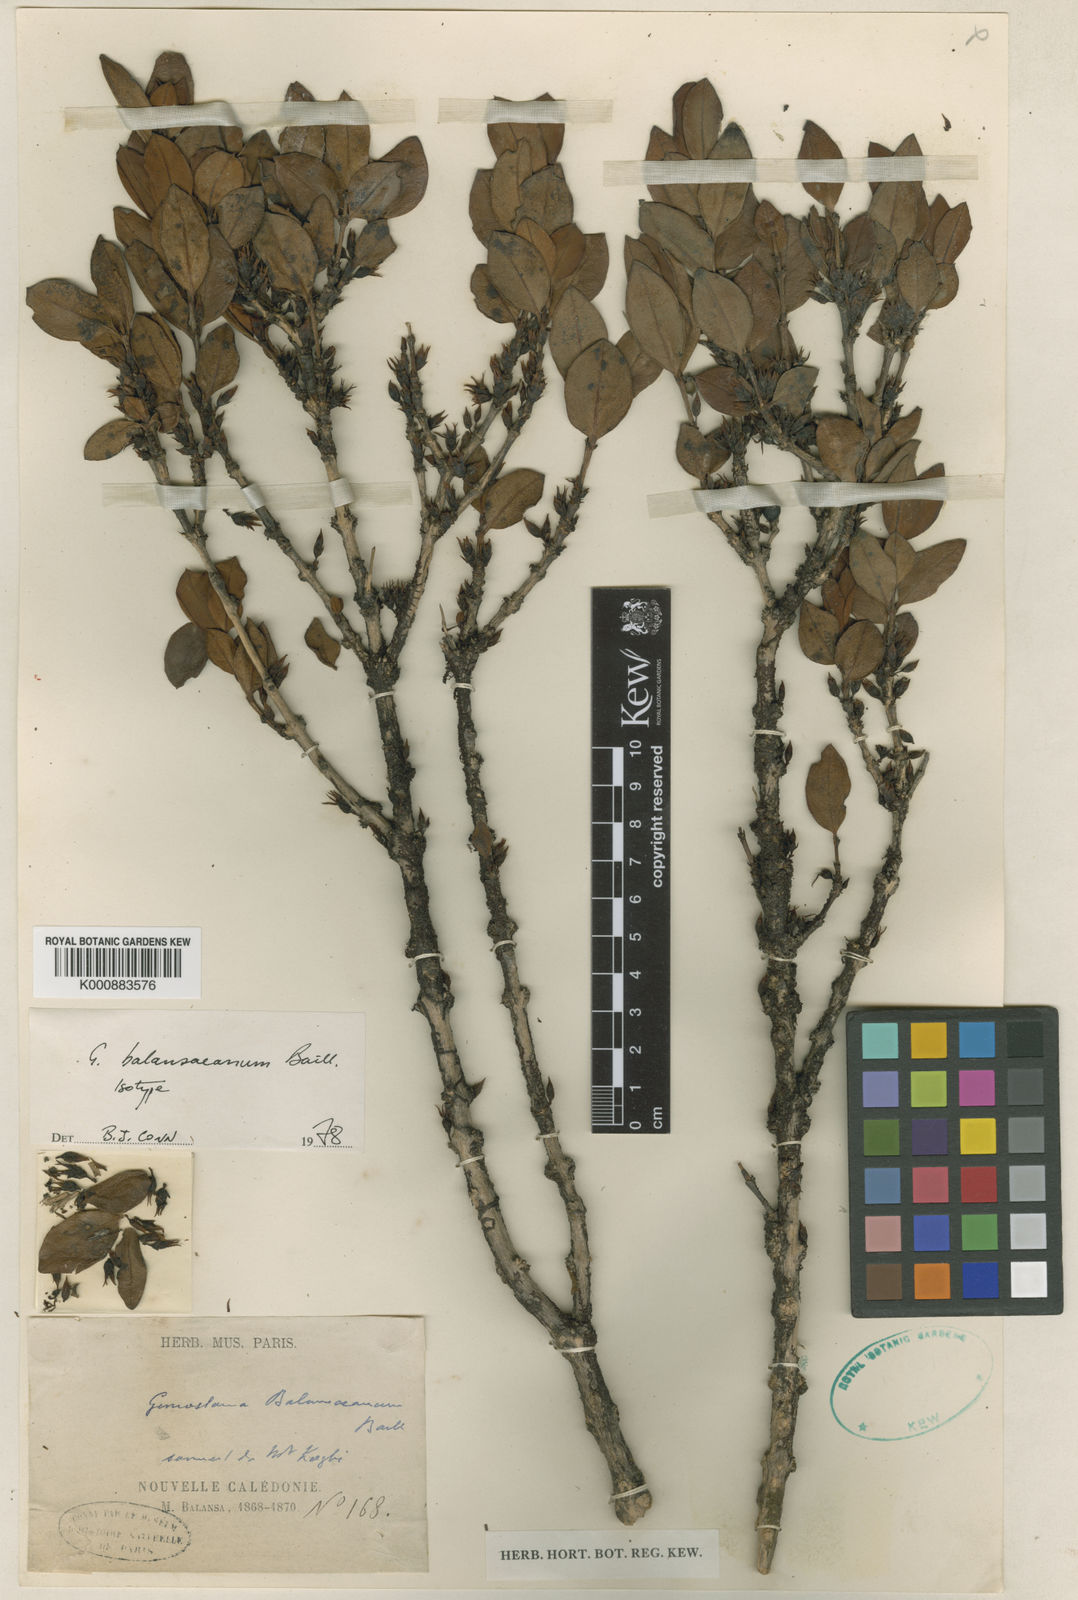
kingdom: Plantae
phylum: Tracheophyta
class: Magnoliopsida
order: Gentianales
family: Loganiaceae
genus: Geniostoma
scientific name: Geniostoma
